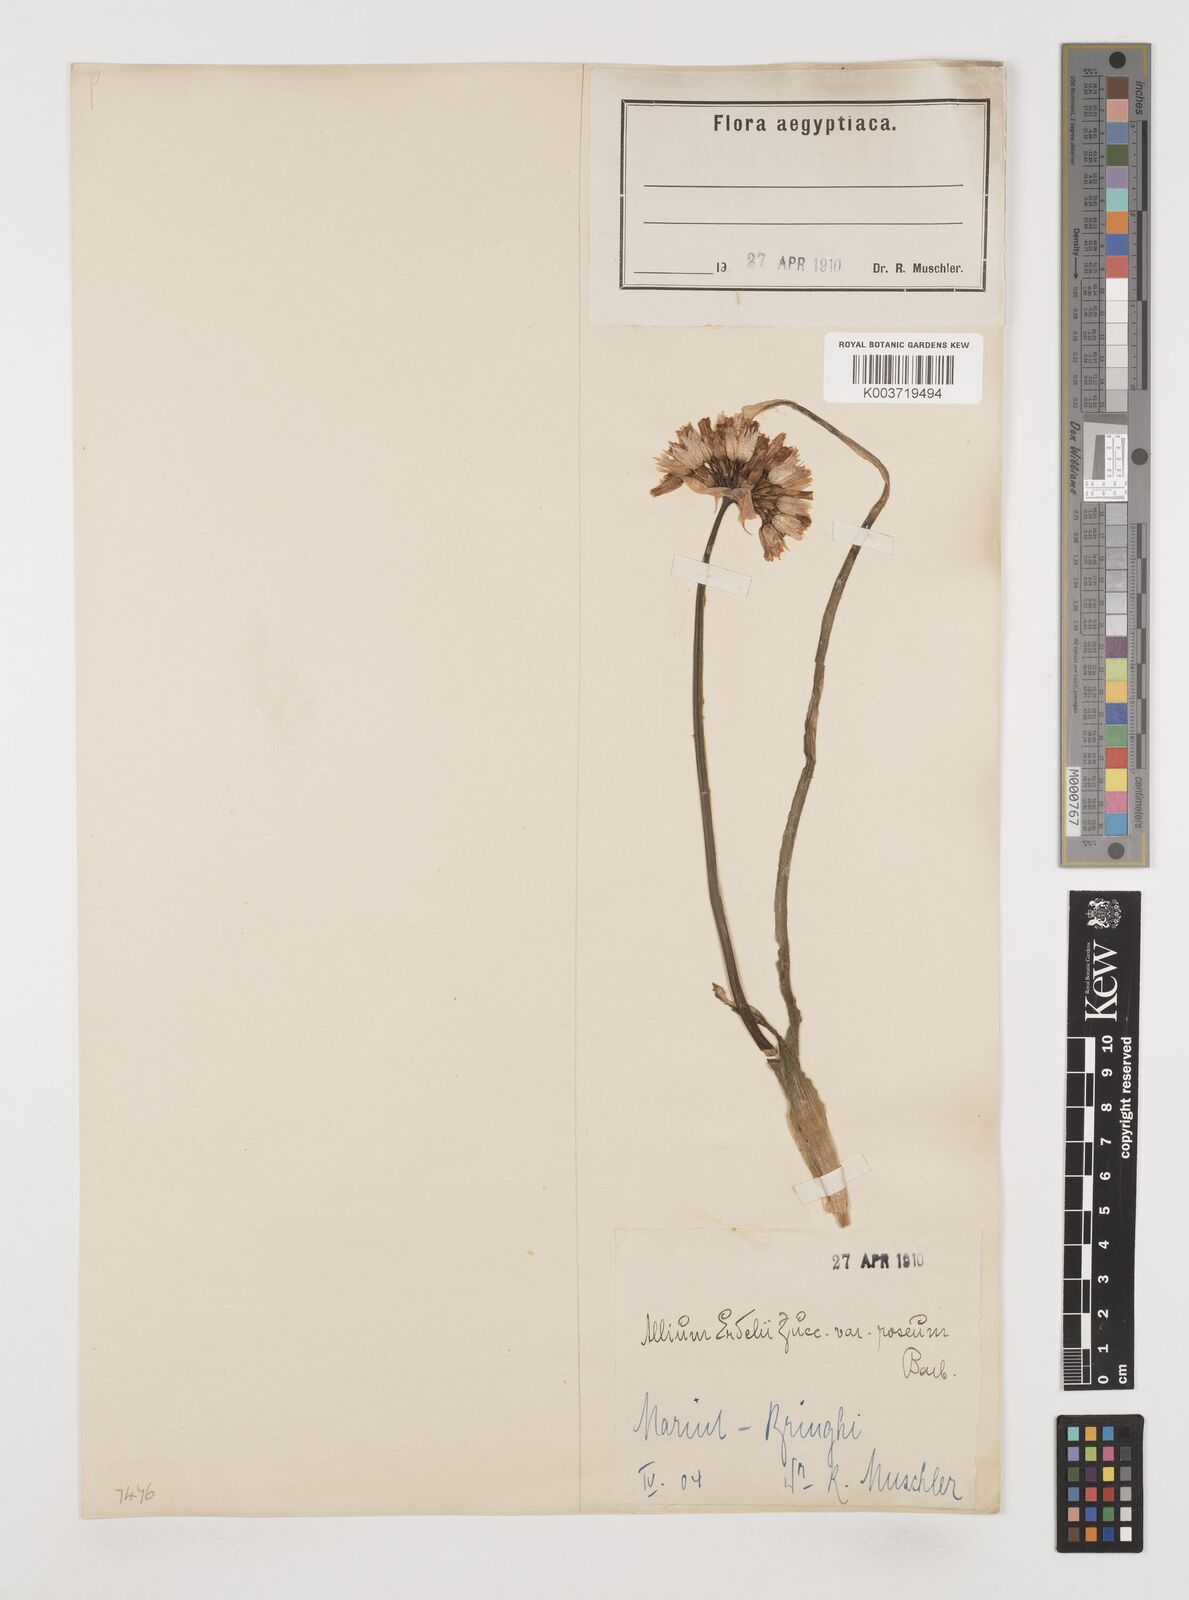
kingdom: Plantae
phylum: Tracheophyta
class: Liliopsida
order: Asparagales
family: Amaryllidaceae
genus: Allium
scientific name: Allium erdelii
